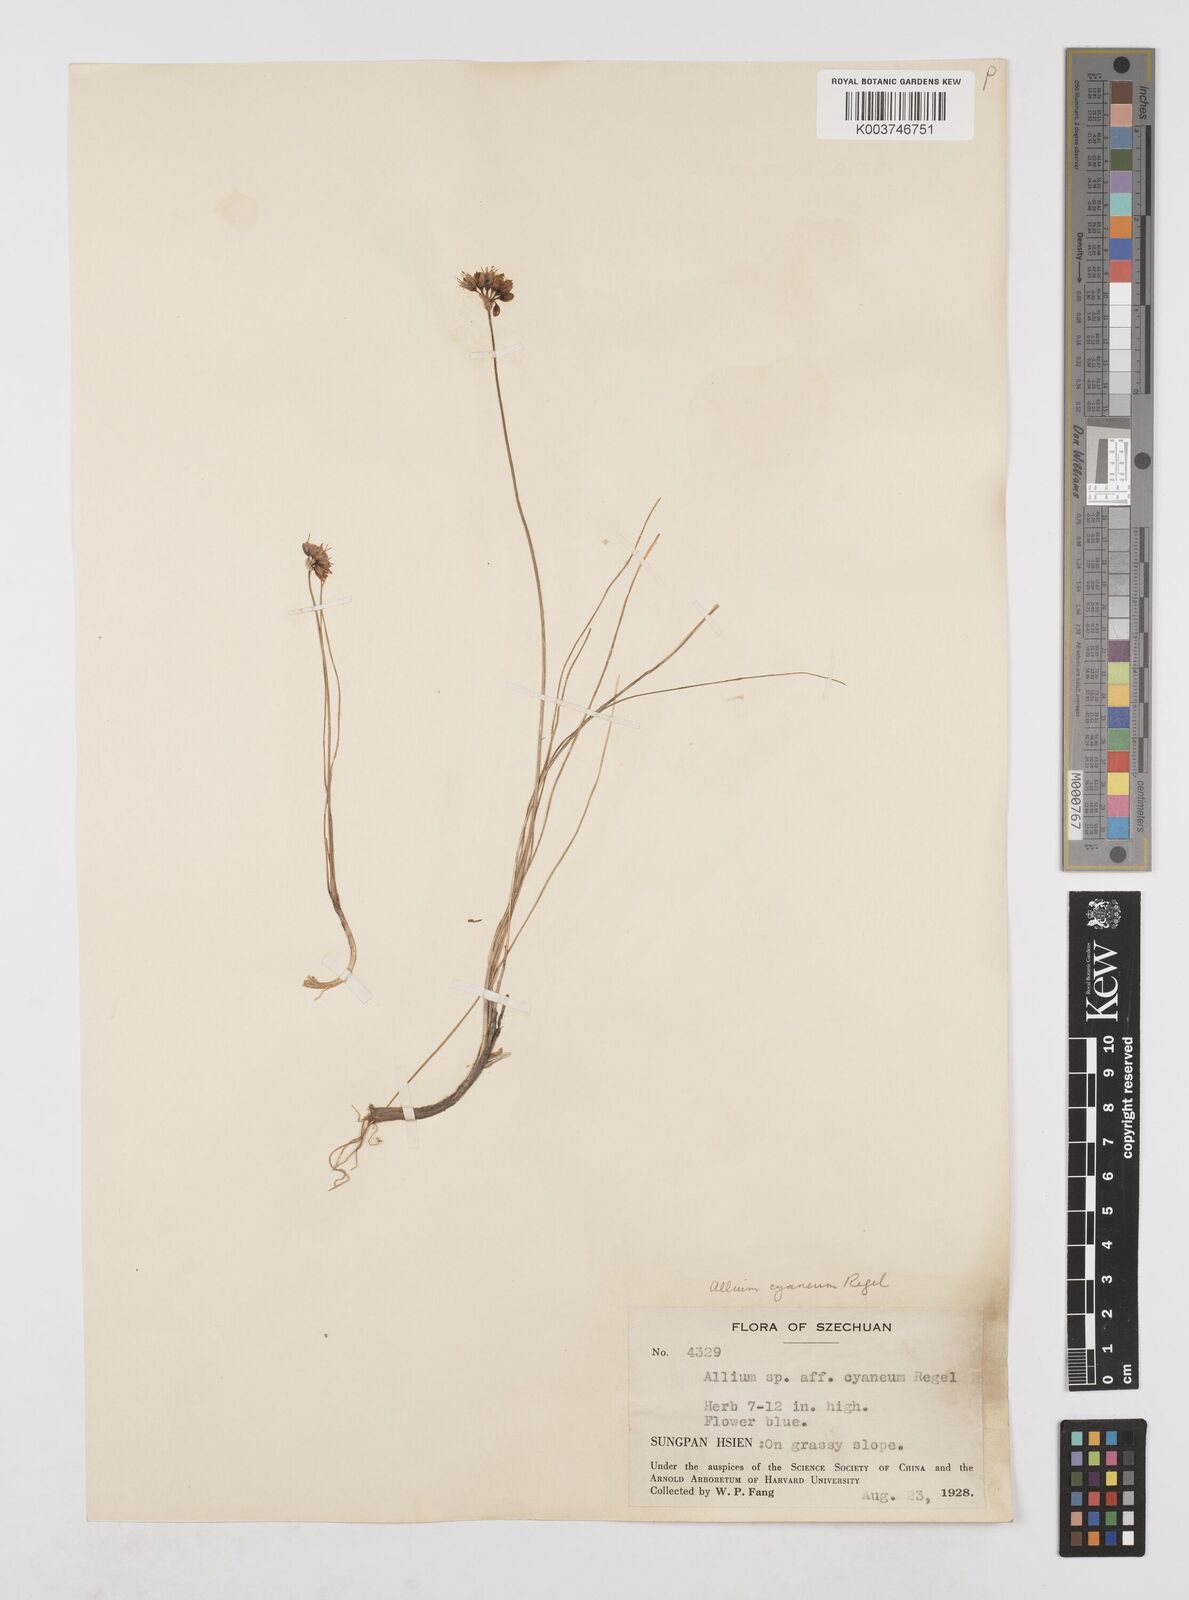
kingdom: Plantae
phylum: Tracheophyta
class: Liliopsida
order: Asparagales
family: Amaryllidaceae
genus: Allium
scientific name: Allium cyaneum
